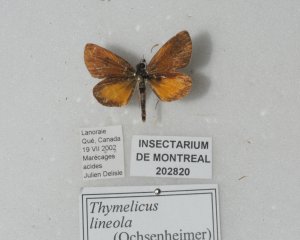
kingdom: Animalia
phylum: Arthropoda
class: Insecta
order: Lepidoptera
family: Hesperiidae
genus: Ancyloxypha
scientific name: Ancyloxypha numitor
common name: Least Skipper
